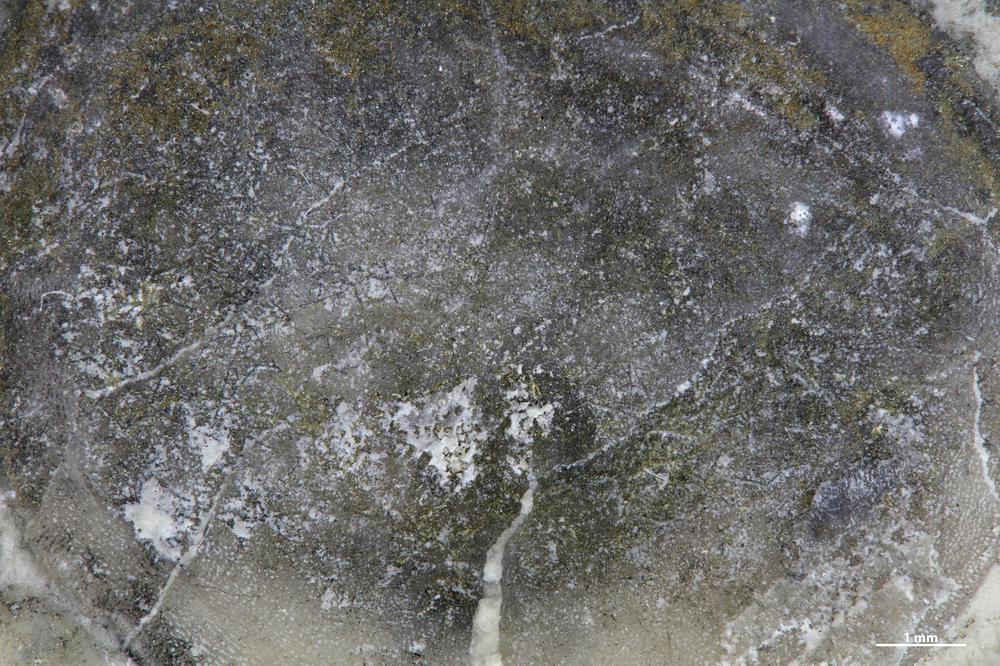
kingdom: Animalia
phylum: Brachiopoda
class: Craniata
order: Craniida
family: Craniidae
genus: Petrocrania
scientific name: Petrocrania
